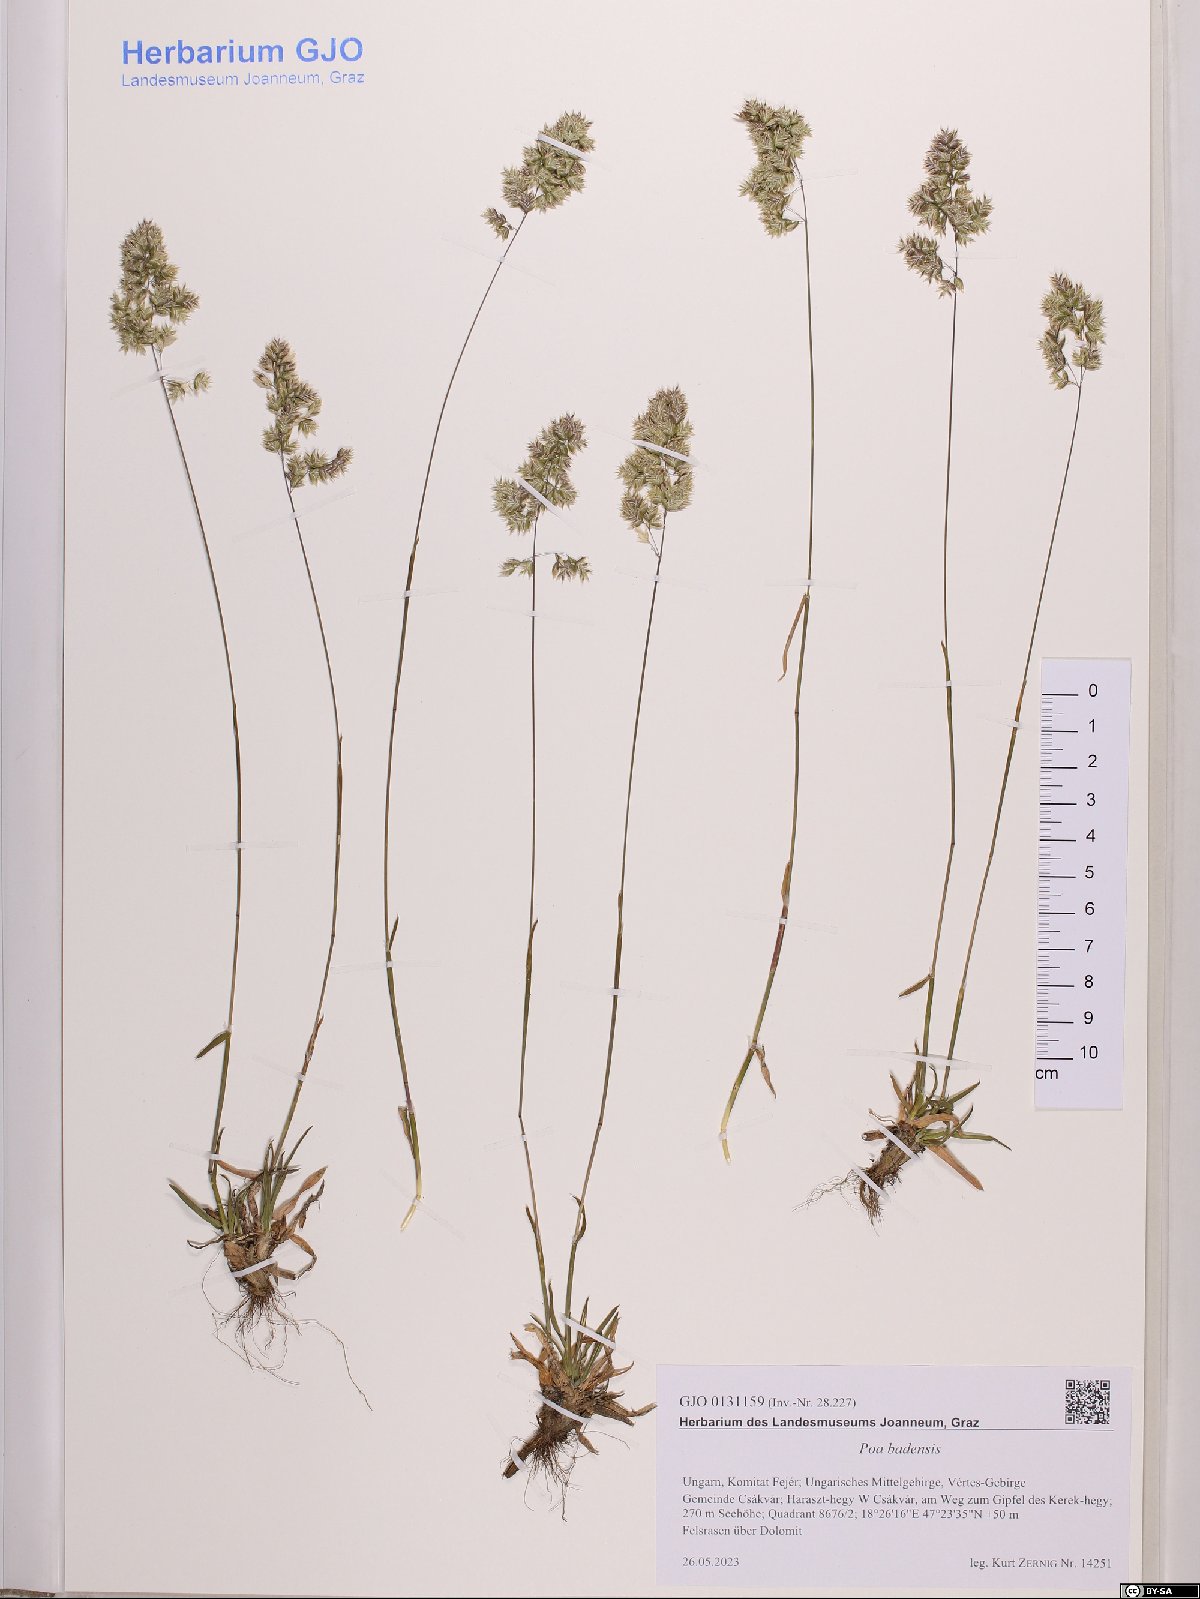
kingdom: Plantae
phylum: Tracheophyta
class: Liliopsida
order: Poales
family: Poaceae
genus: Poa
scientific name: Poa badensis
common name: Baden's bluegrass
